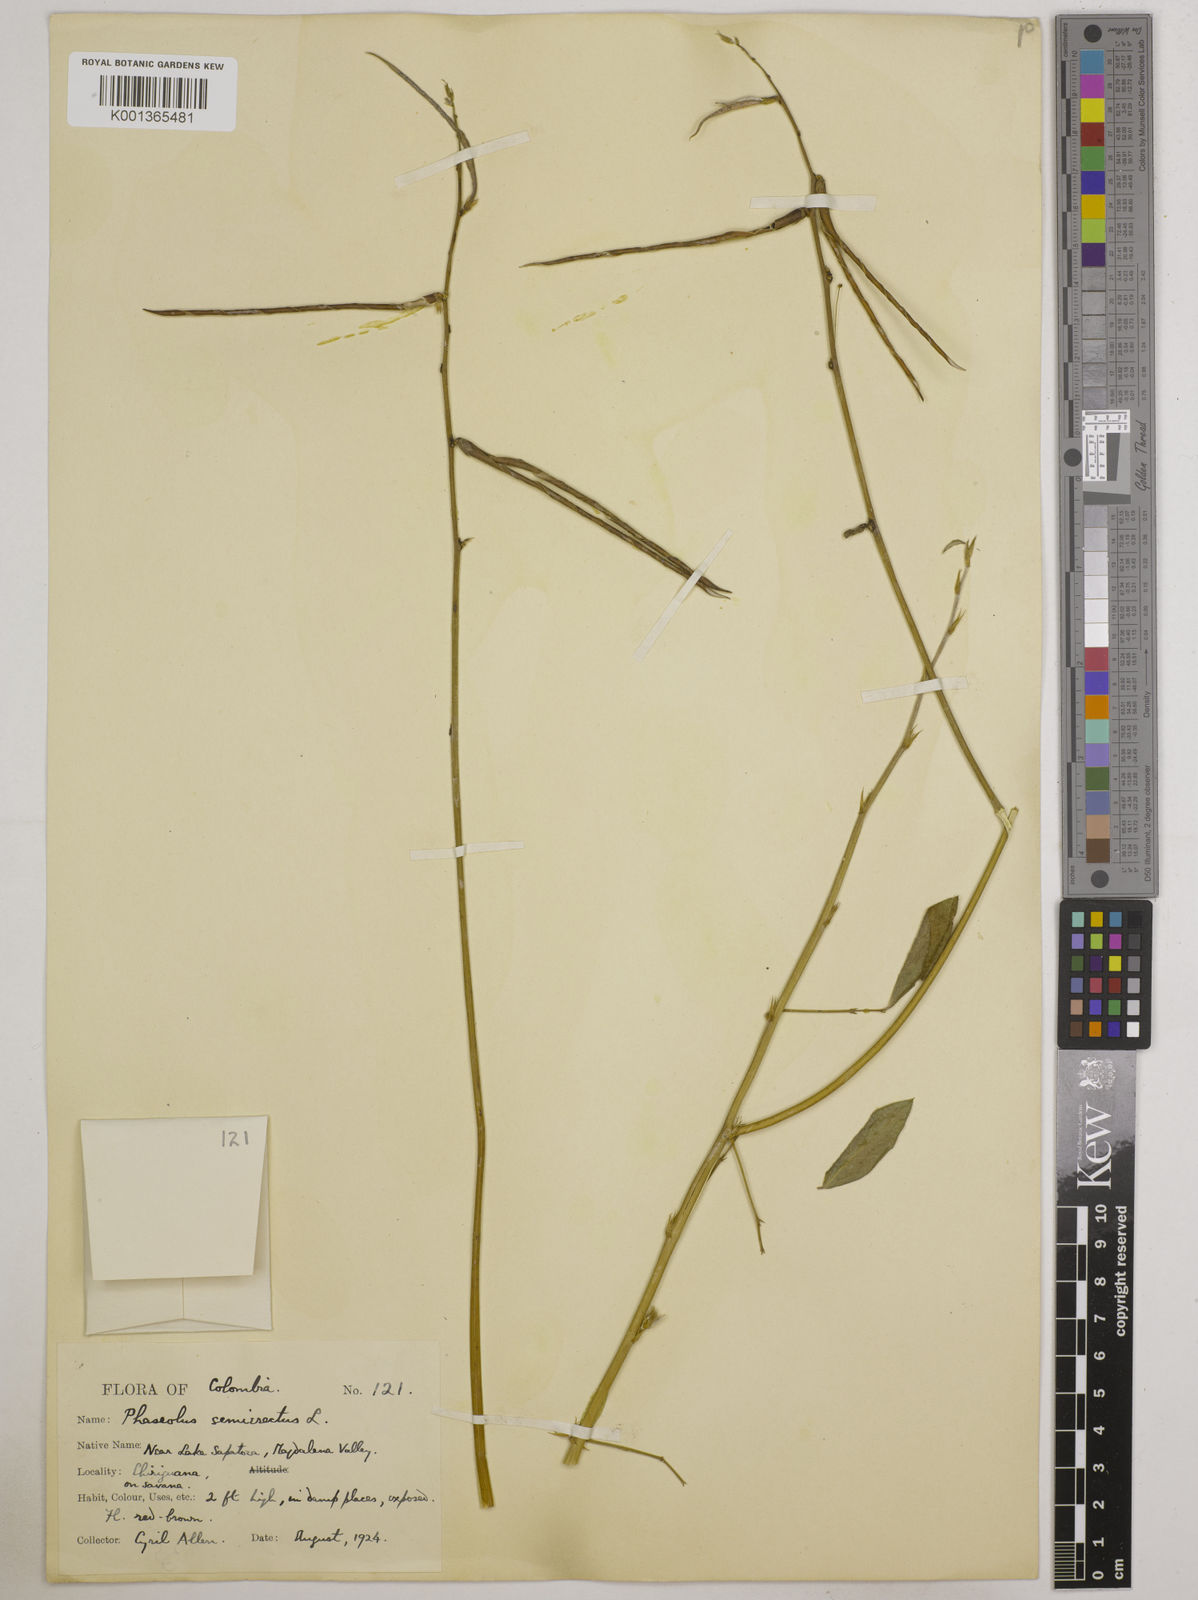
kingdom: Plantae
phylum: Tracheophyta
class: Magnoliopsida
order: Fabales
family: Fabaceae
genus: Macroptilium
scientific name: Macroptilium lathyroides
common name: Wild bushbean
